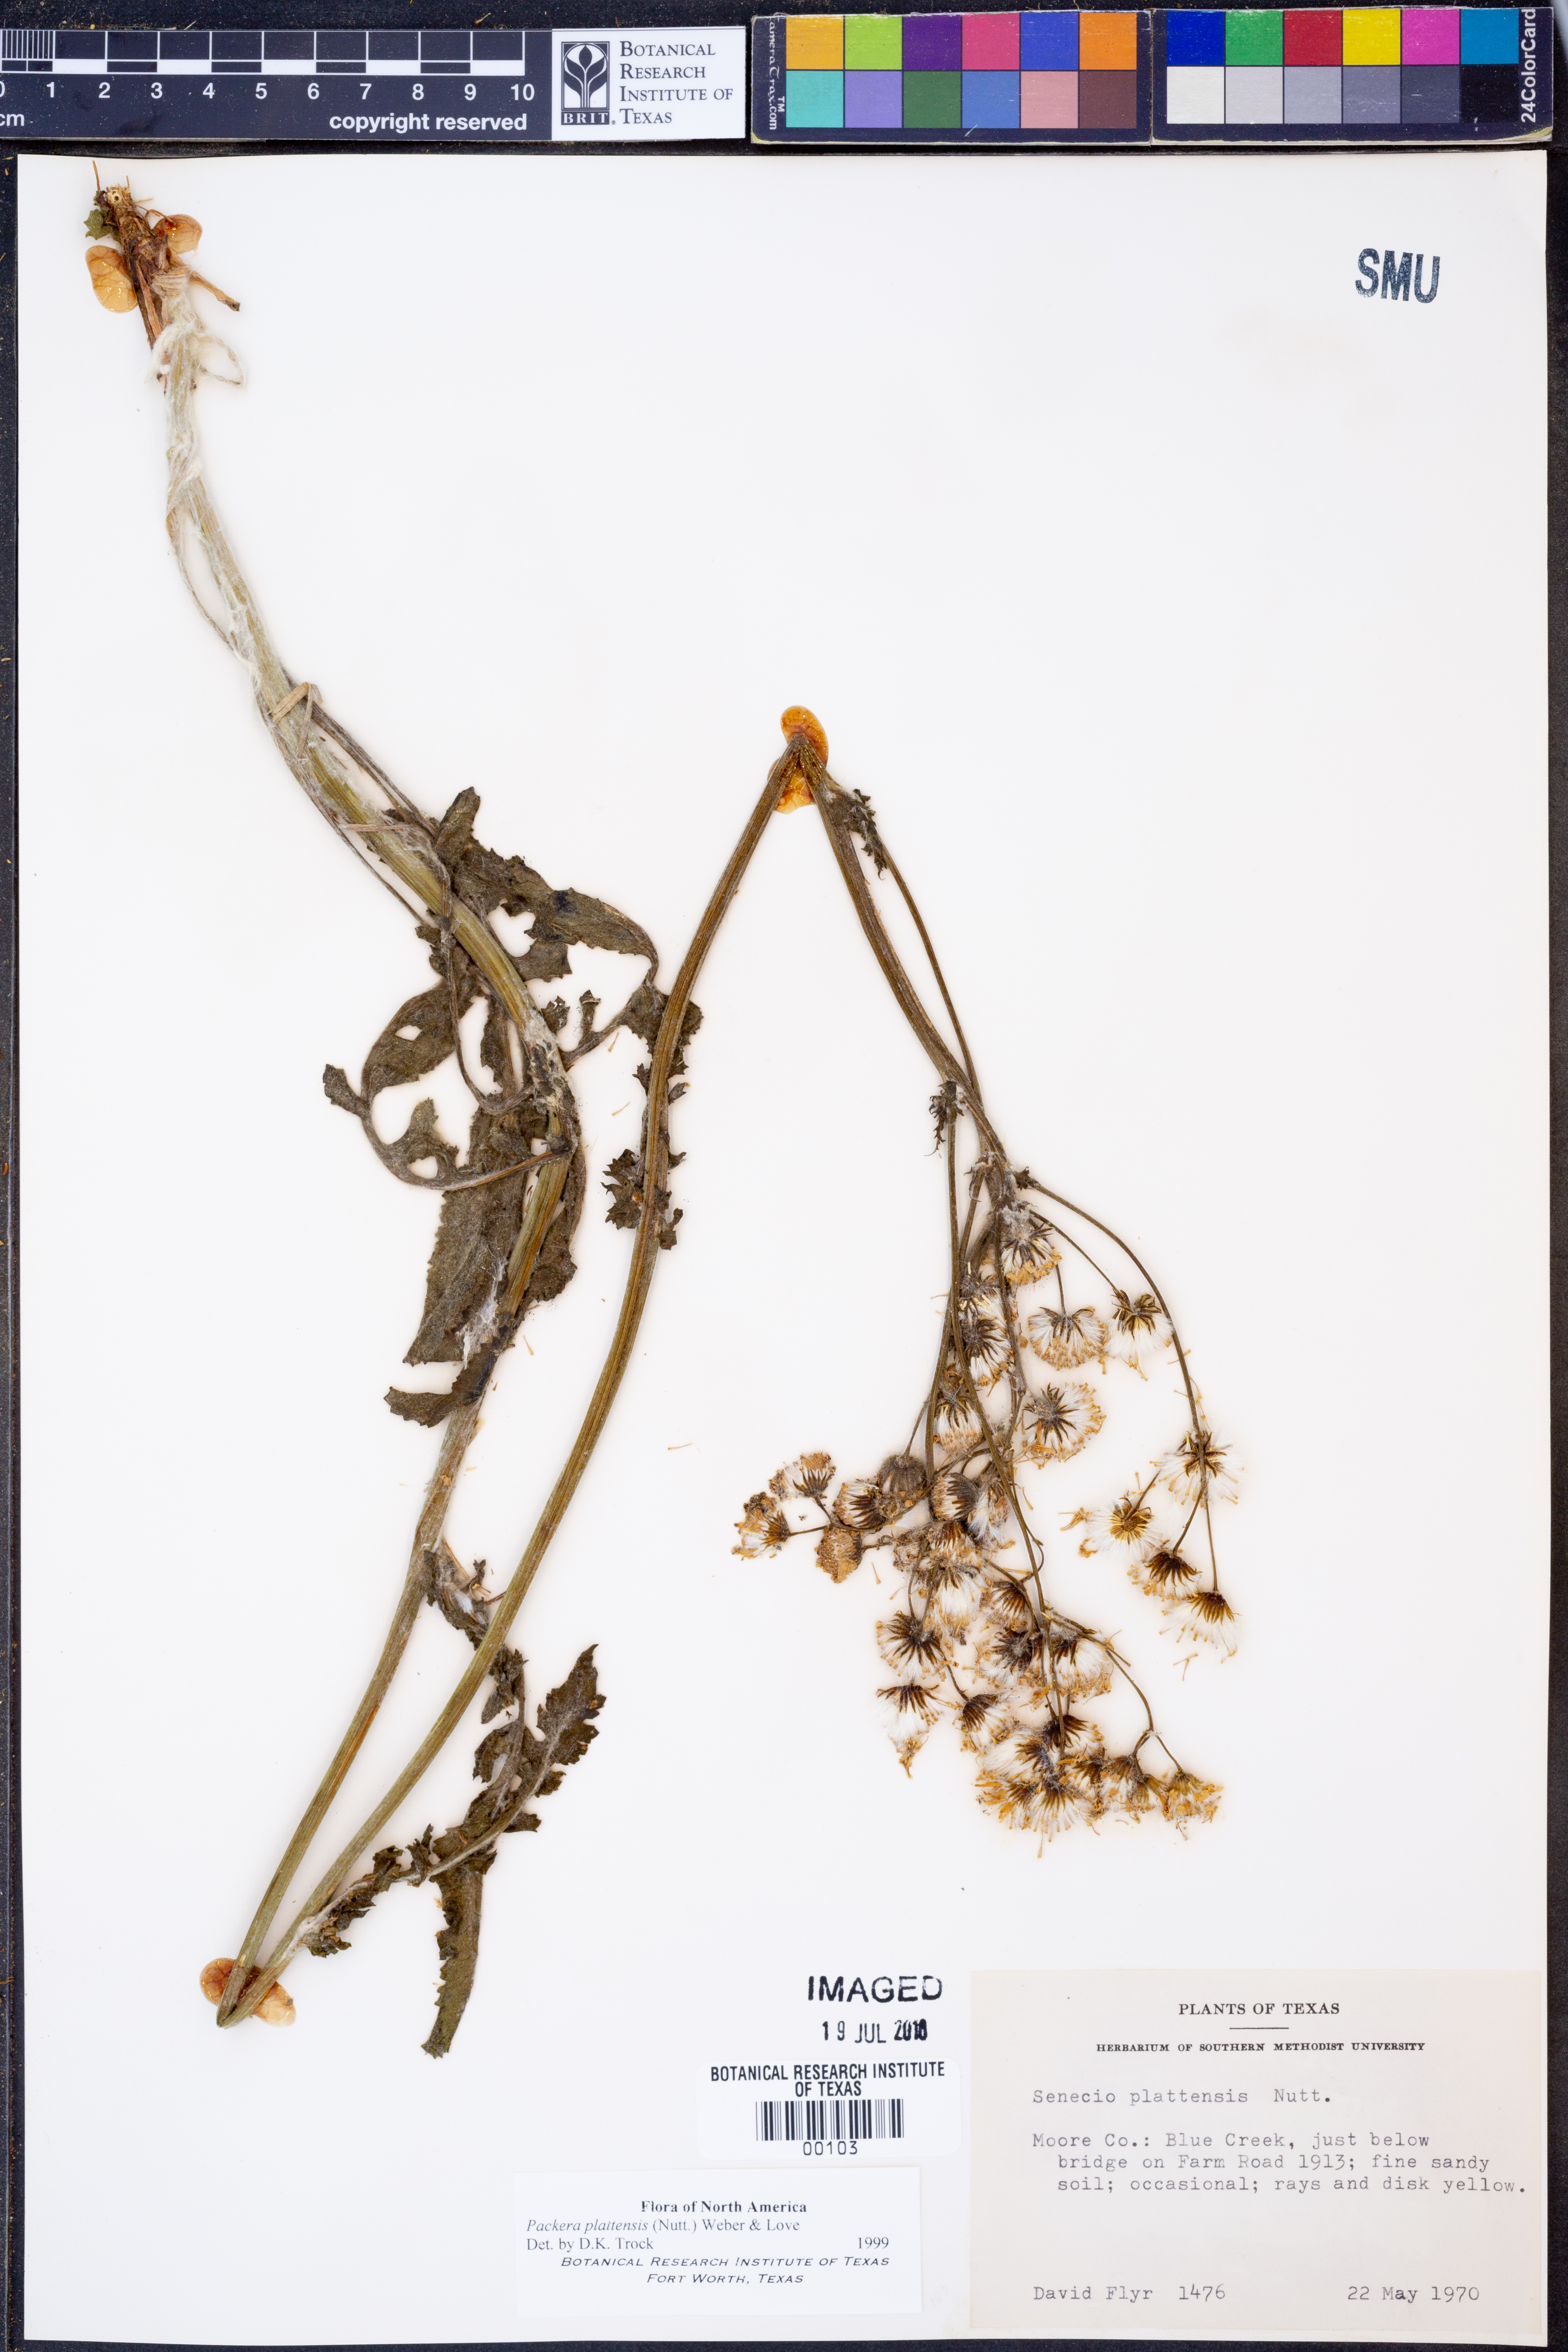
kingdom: Plantae
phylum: Tracheophyta
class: Magnoliopsida
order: Asterales
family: Asteraceae
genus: Packera
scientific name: Packera plattensis
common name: Prairie groundsel
